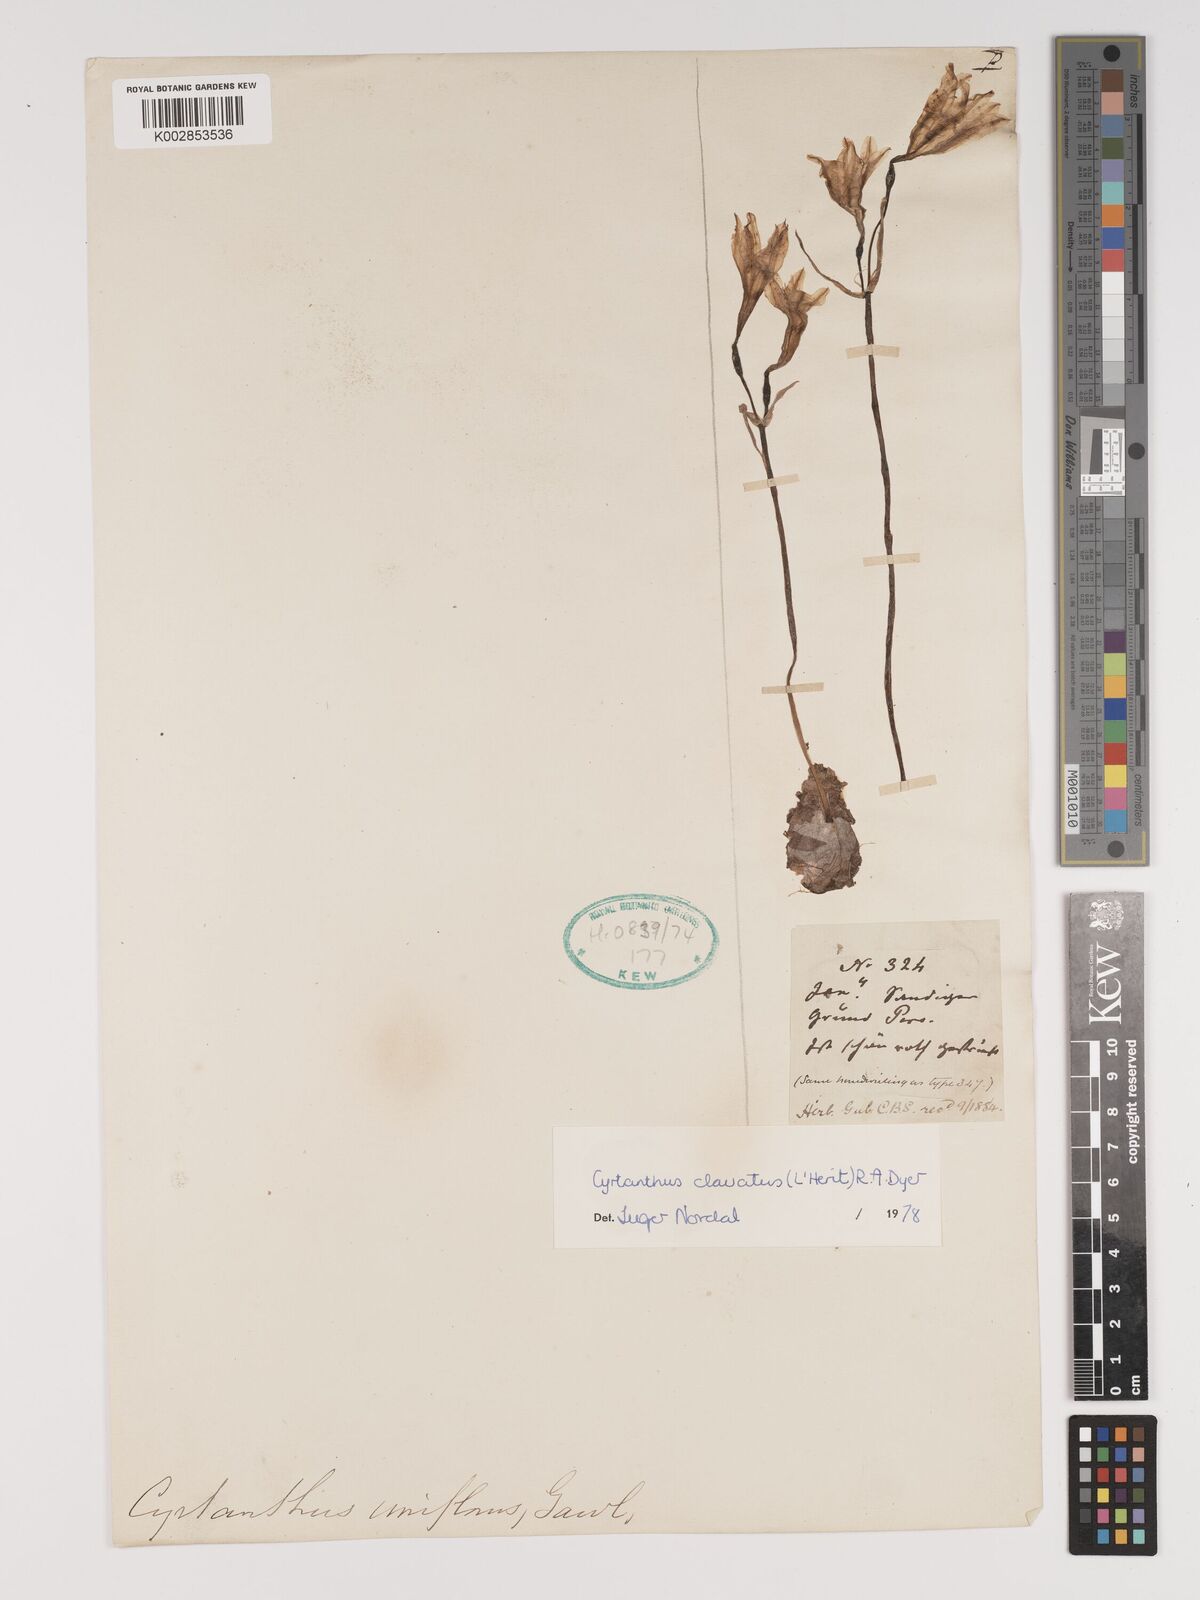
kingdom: Plantae
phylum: Tracheophyta
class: Liliopsida
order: Asparagales
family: Amaryllidaceae
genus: Cyrtanthus
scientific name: Cyrtanthus clavatus
